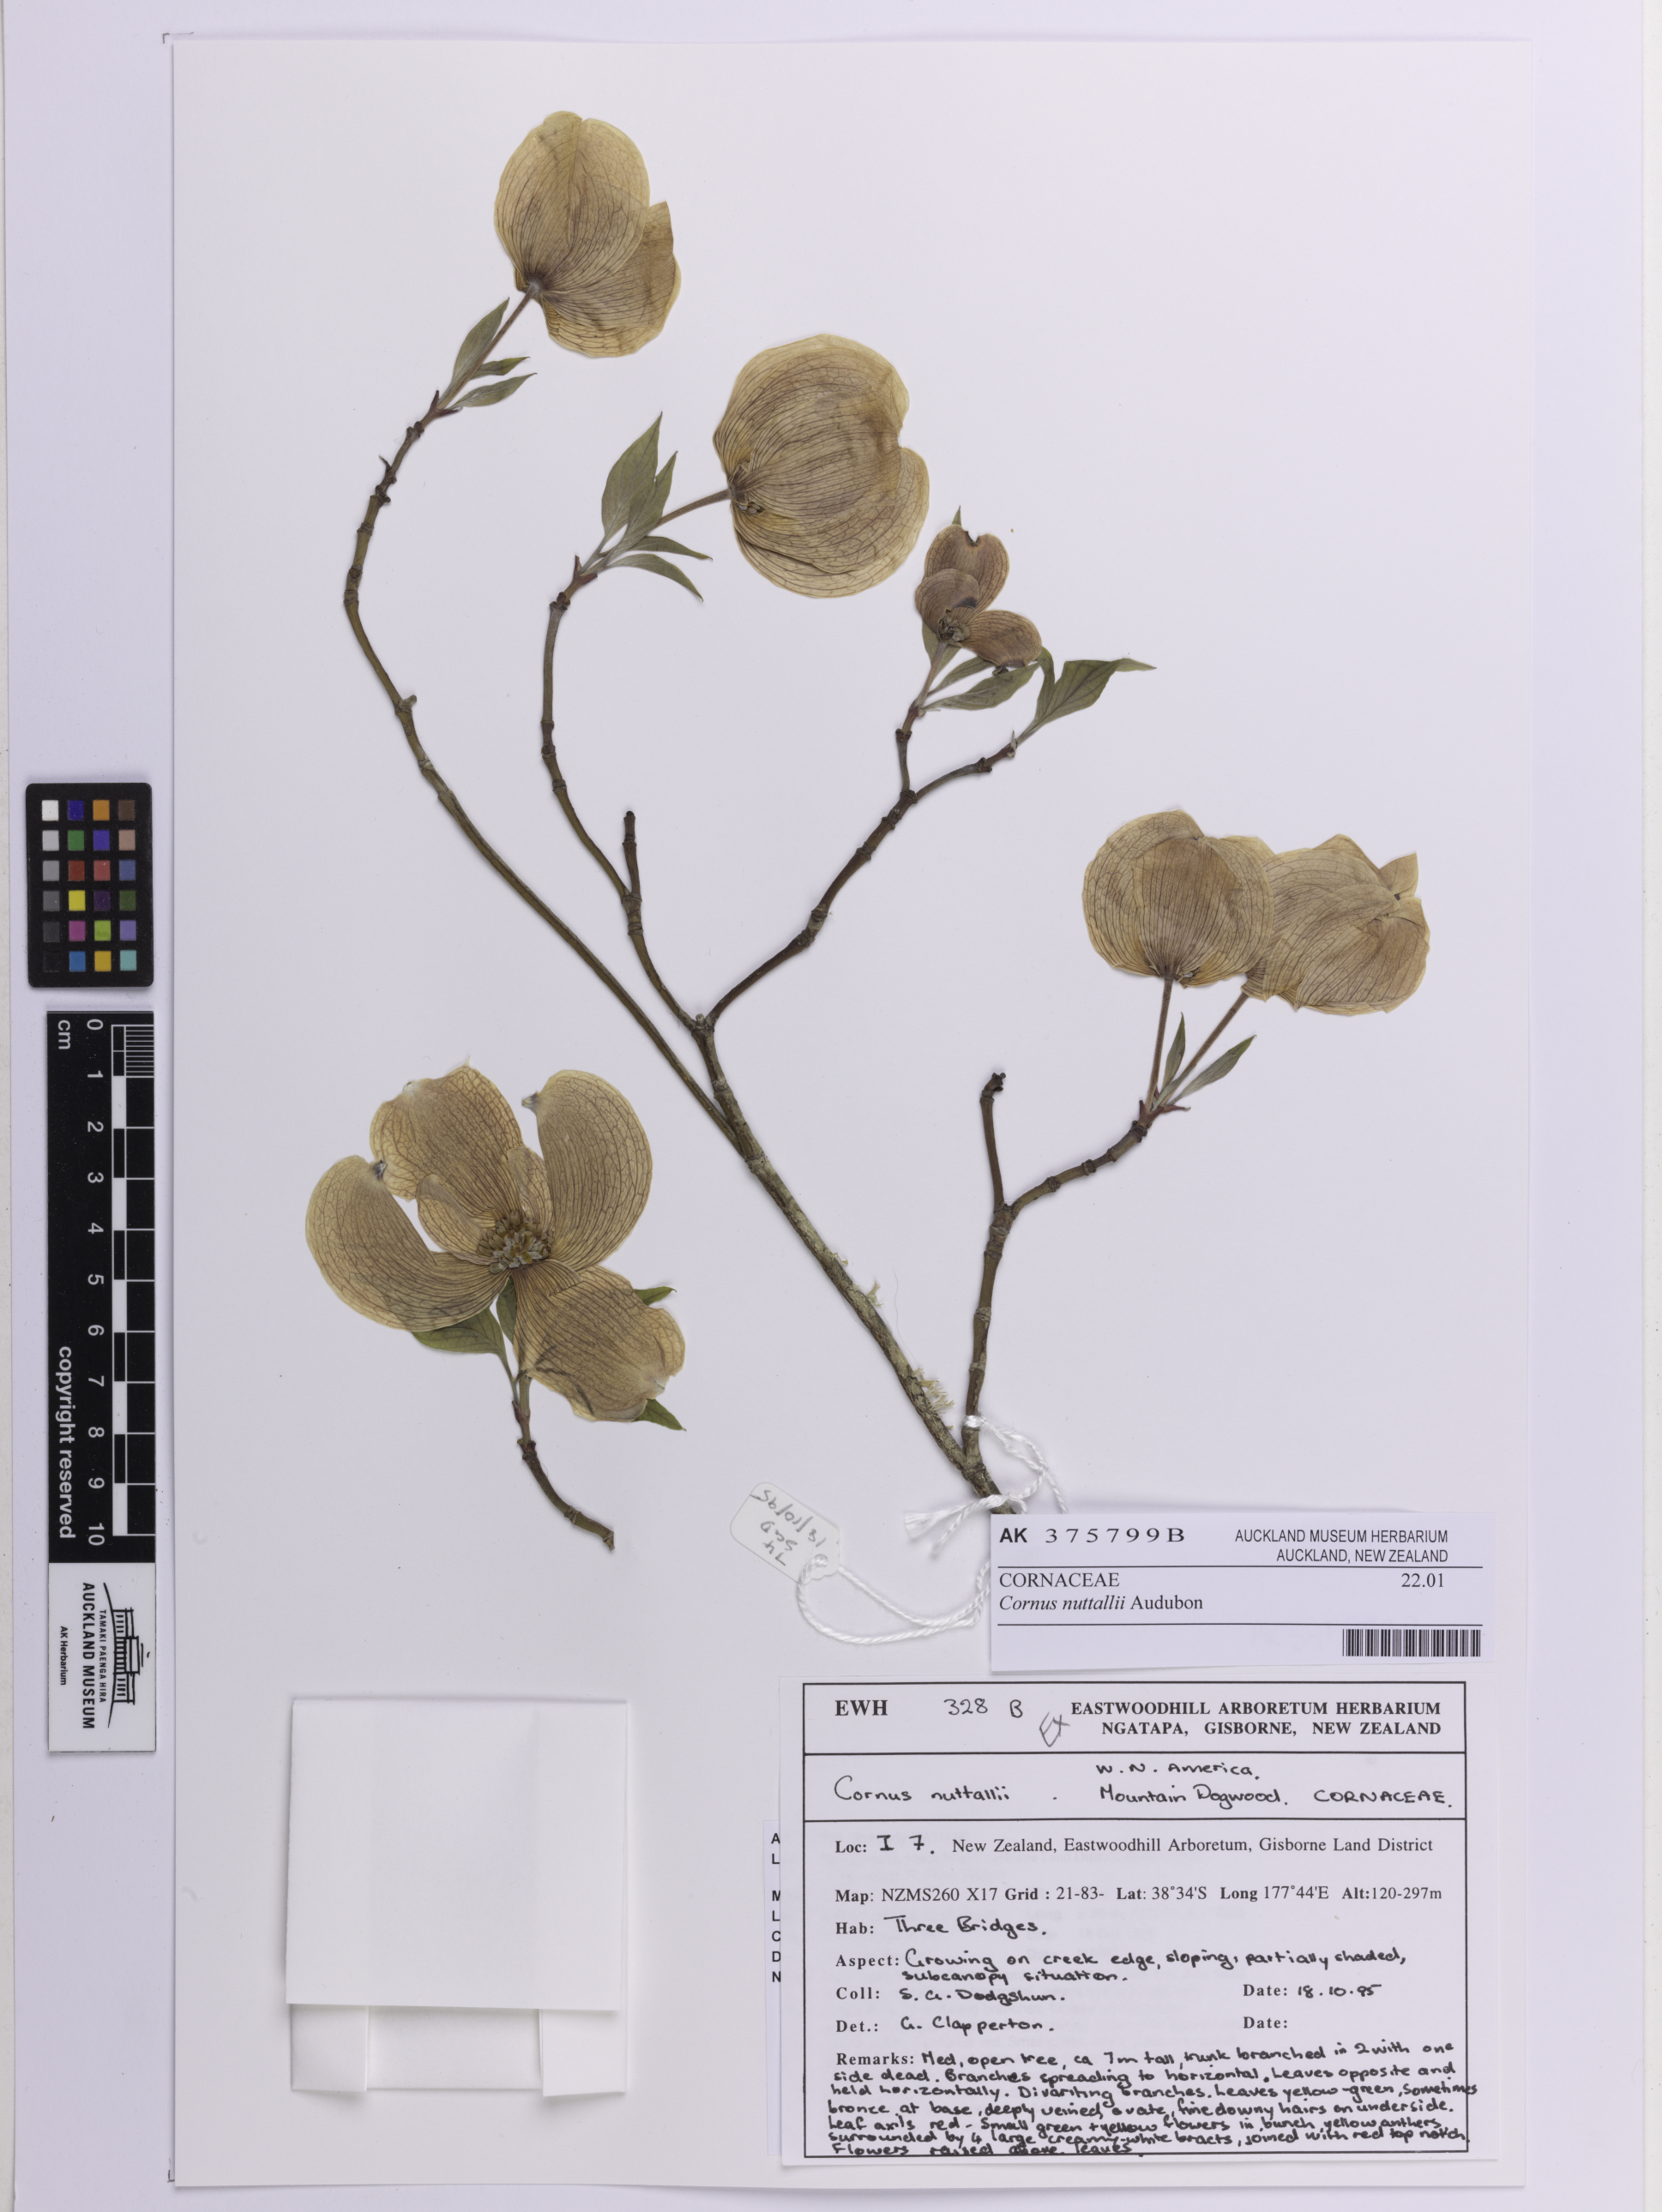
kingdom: Plantae
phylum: Tracheophyta
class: Magnoliopsida
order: Cornales
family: Cornaceae
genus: Cornus
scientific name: Cornus nuttallii
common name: Pacific dogwood
